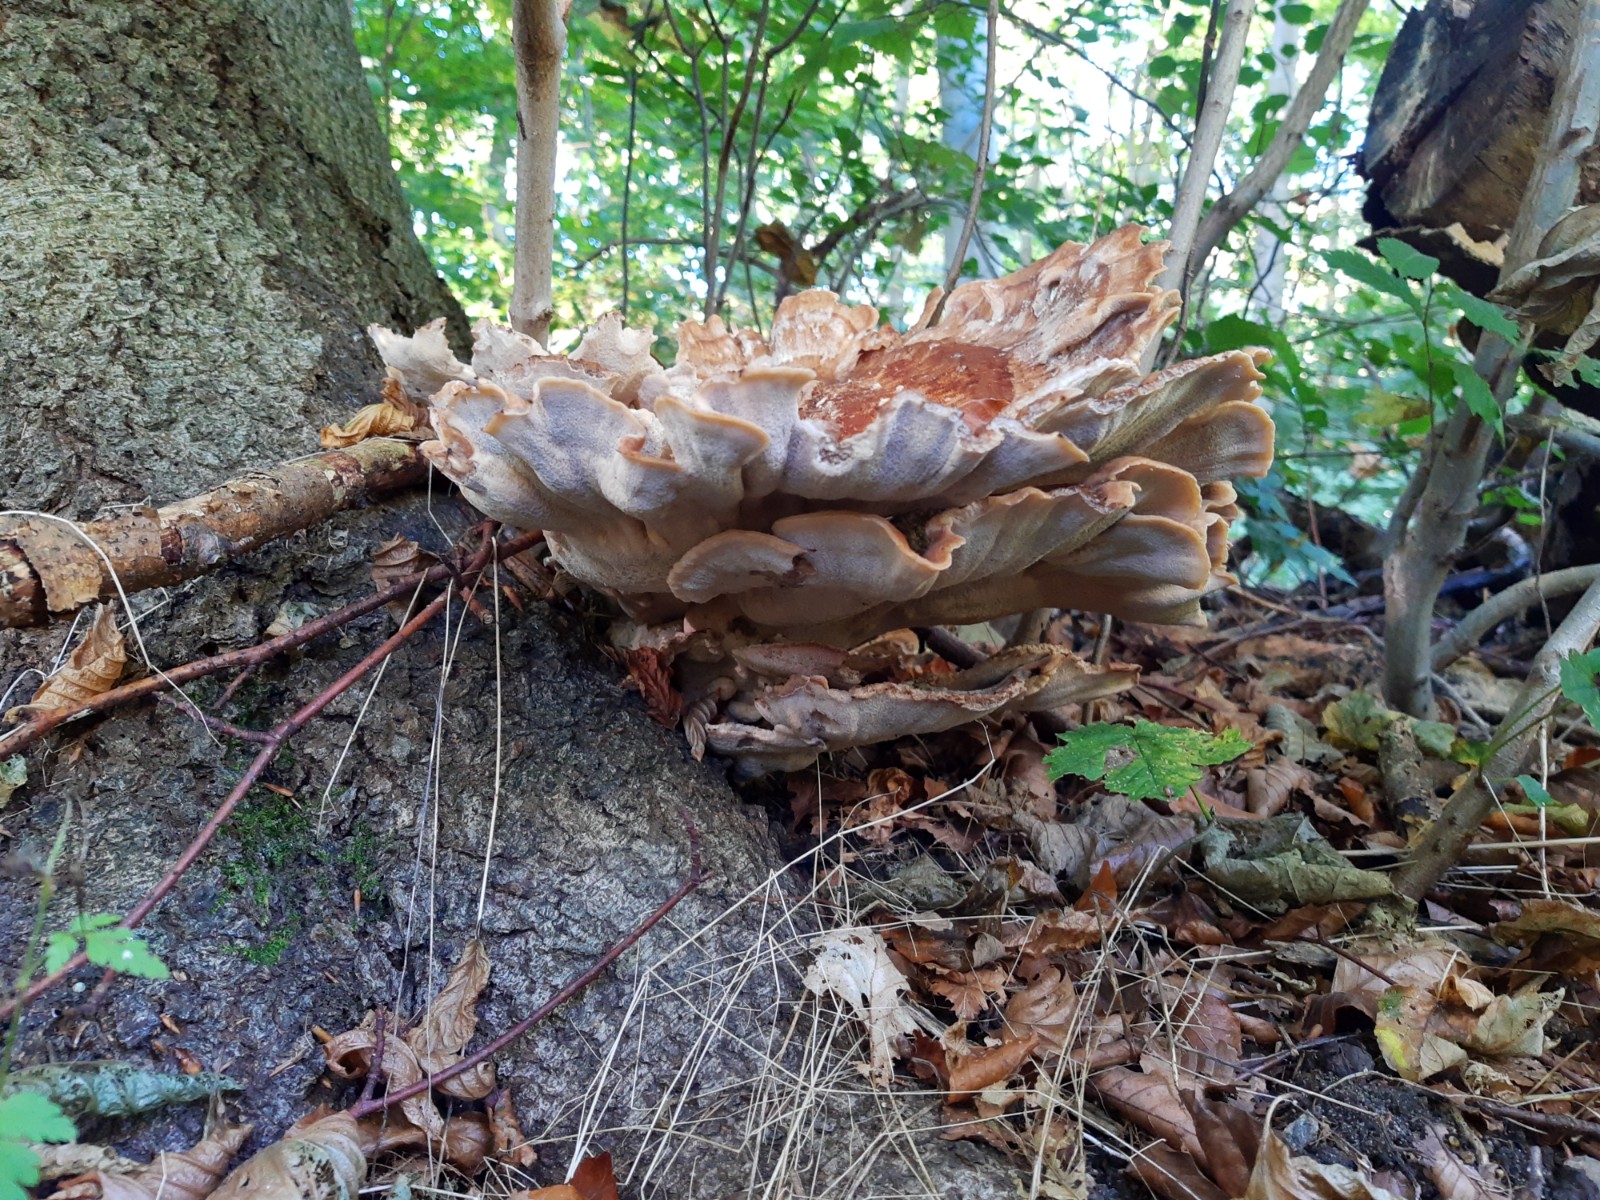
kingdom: Fungi
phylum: Basidiomycota
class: Agaricomycetes
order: Polyporales
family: Meripilaceae
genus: Meripilus
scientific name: Meripilus giganteus
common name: kæmpeporesvamp
